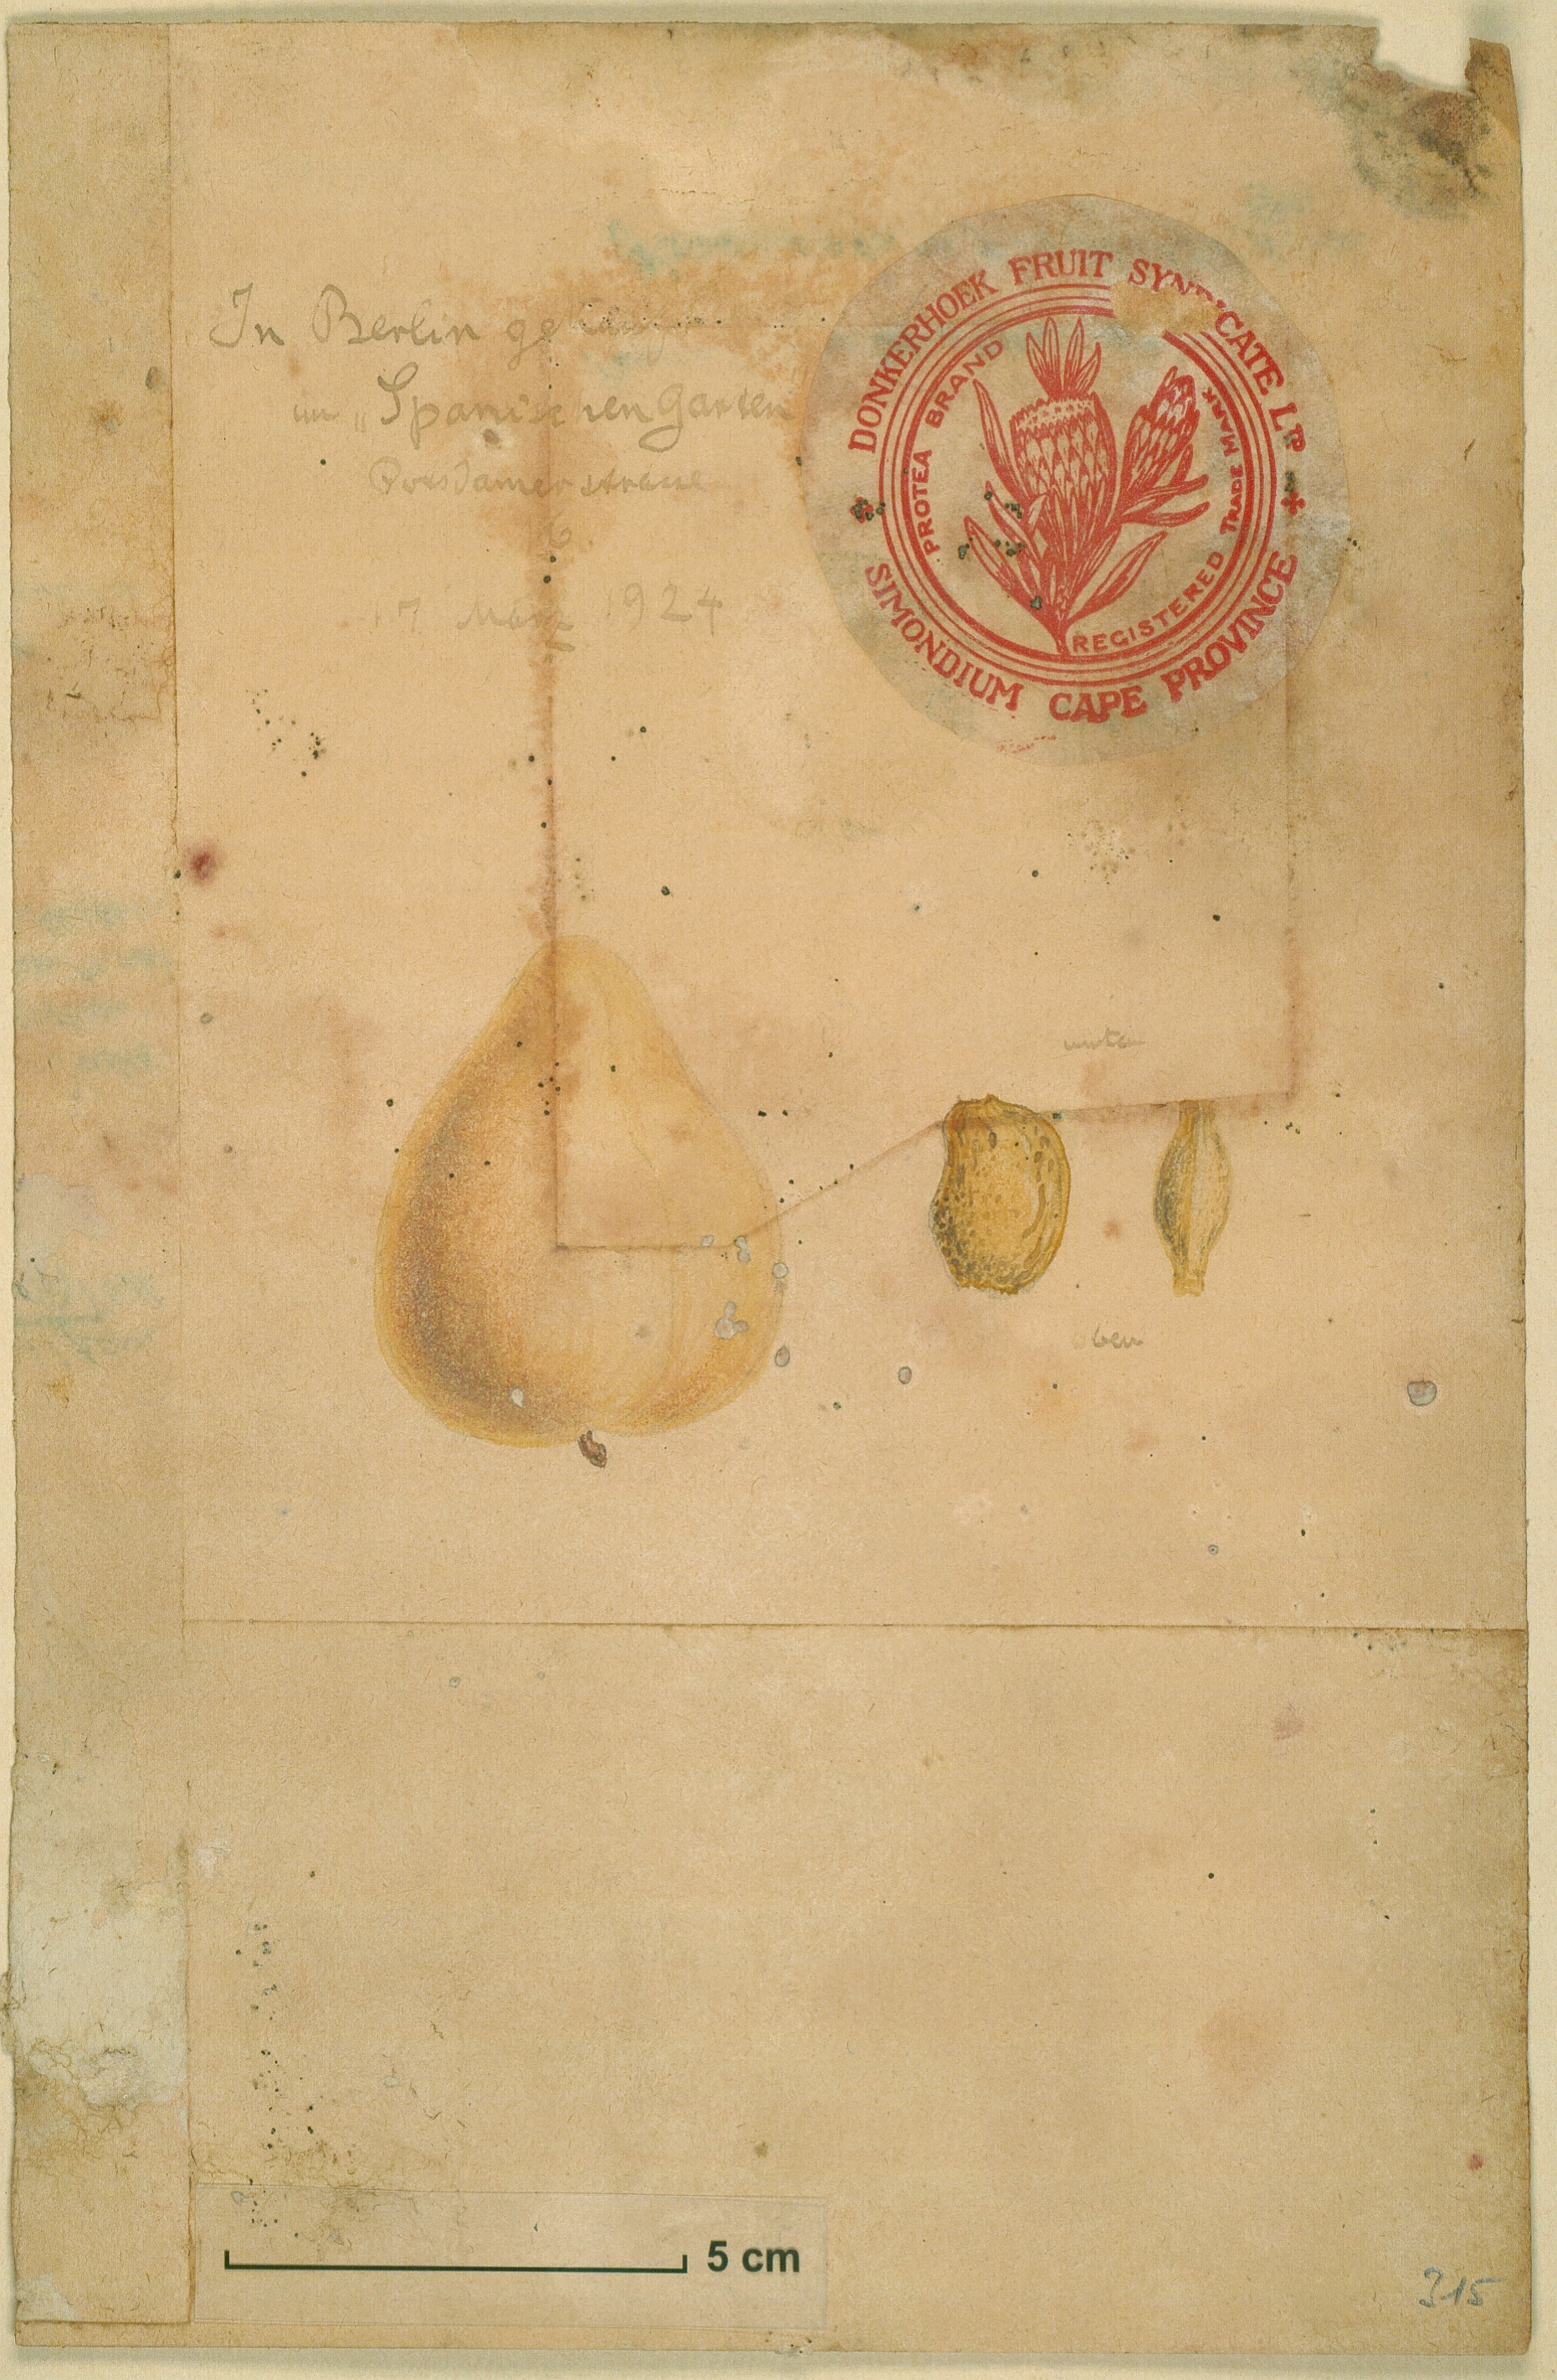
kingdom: Plantae
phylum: Tracheophyta
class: Magnoliopsida
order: Rosales
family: Rosaceae
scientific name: Rosaceae
